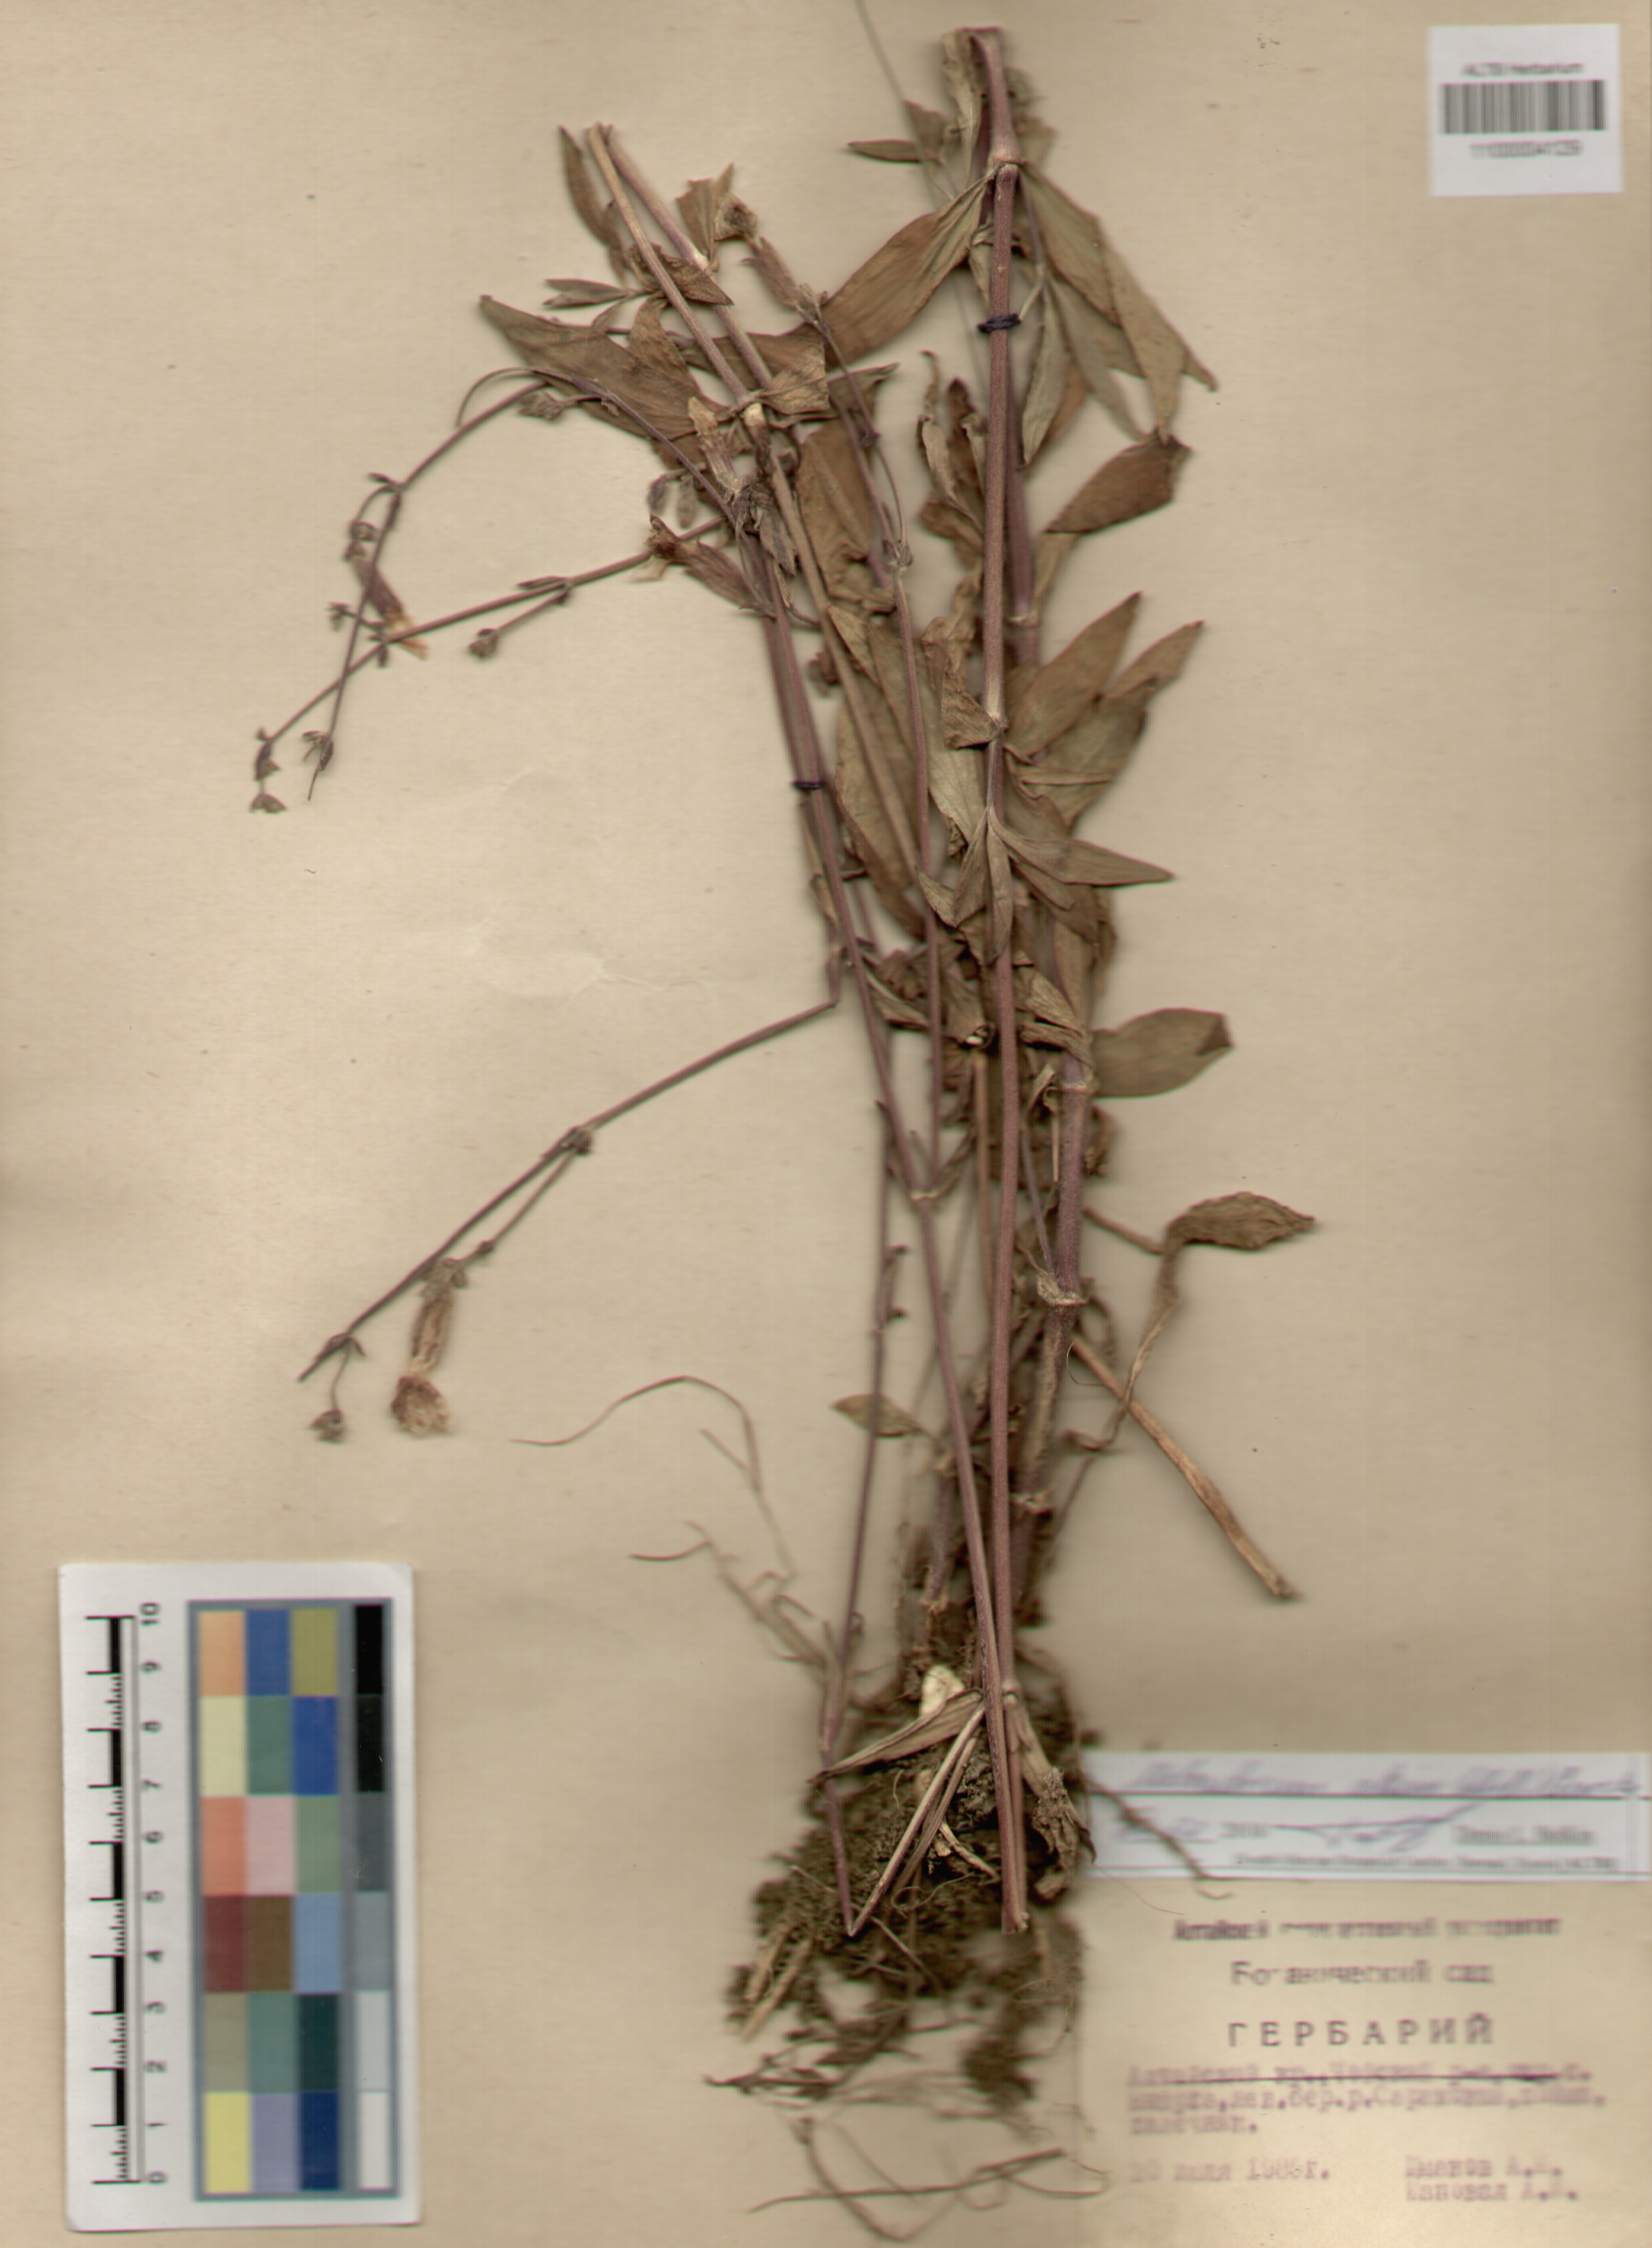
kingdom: Plantae
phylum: Tracheophyta
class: Magnoliopsida
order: Caryophyllales
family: Caryophyllaceae
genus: Silene
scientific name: Silene latifolia
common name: White campion
